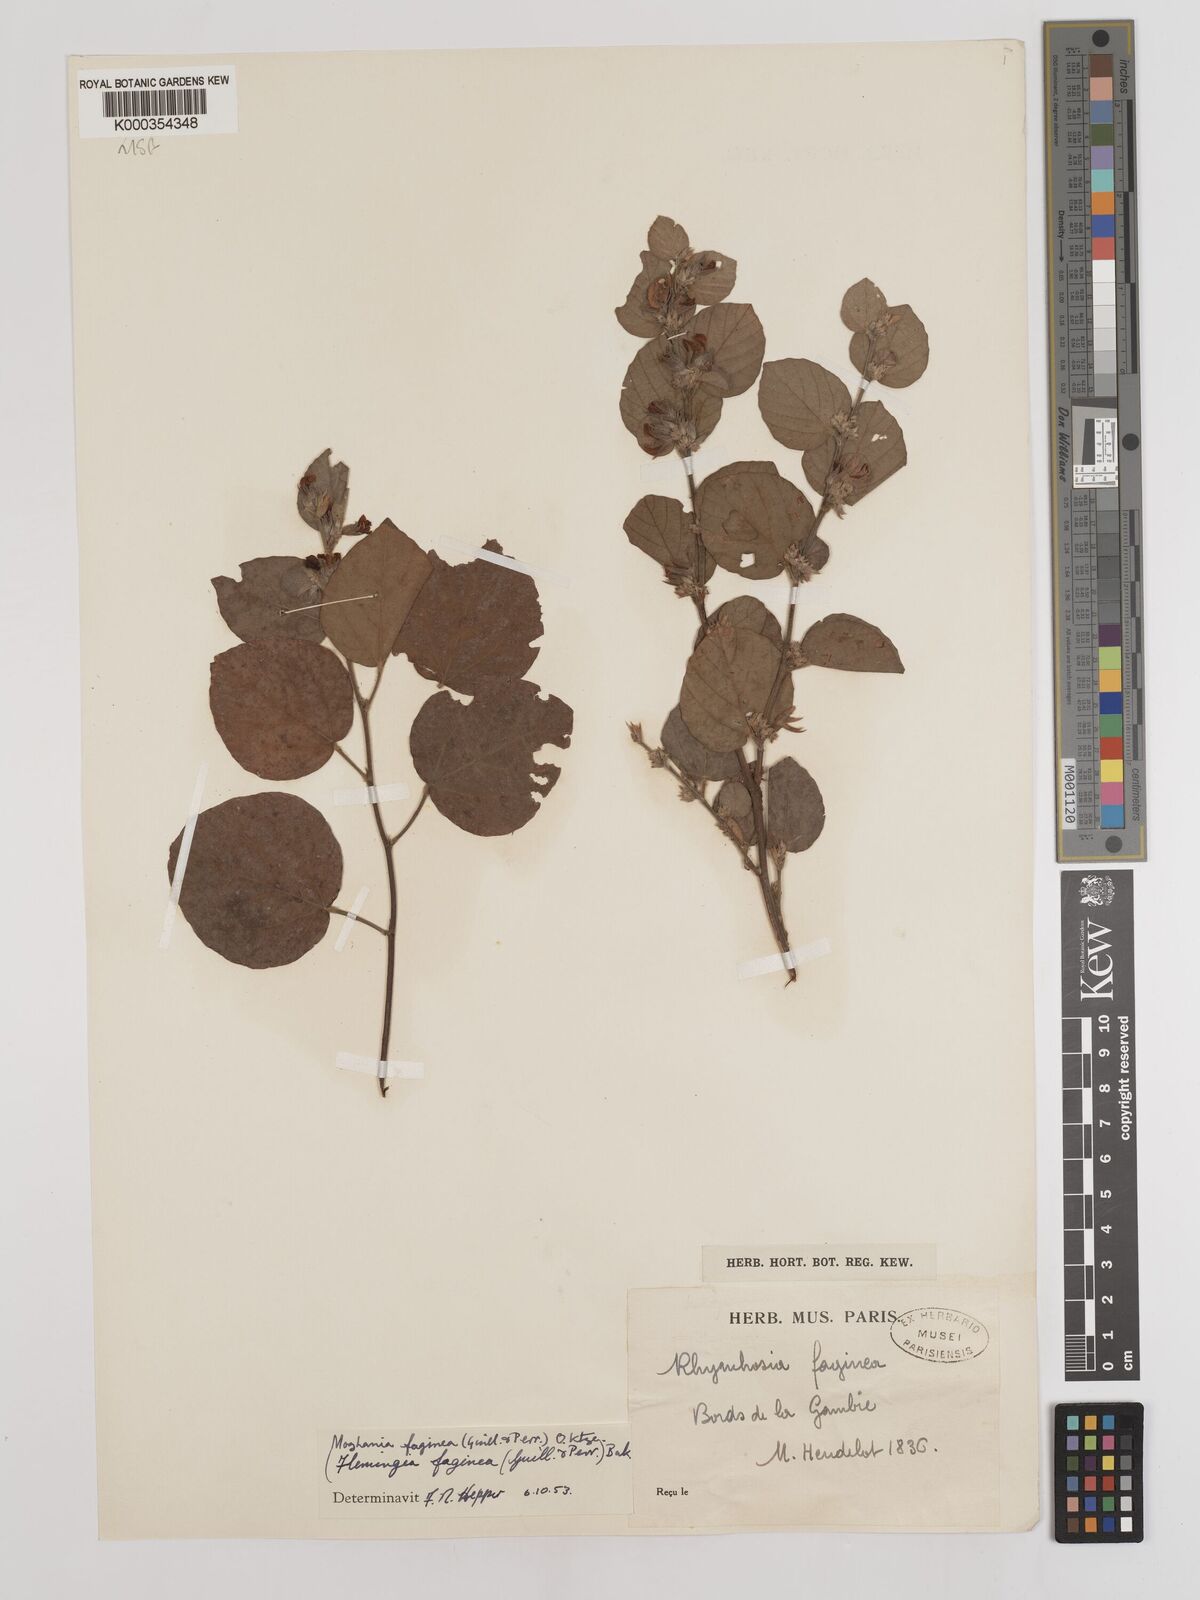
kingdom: Plantae
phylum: Tracheophyta
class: Magnoliopsida
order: Fabales
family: Fabaceae
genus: Flemingia
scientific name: Flemingia faginea
